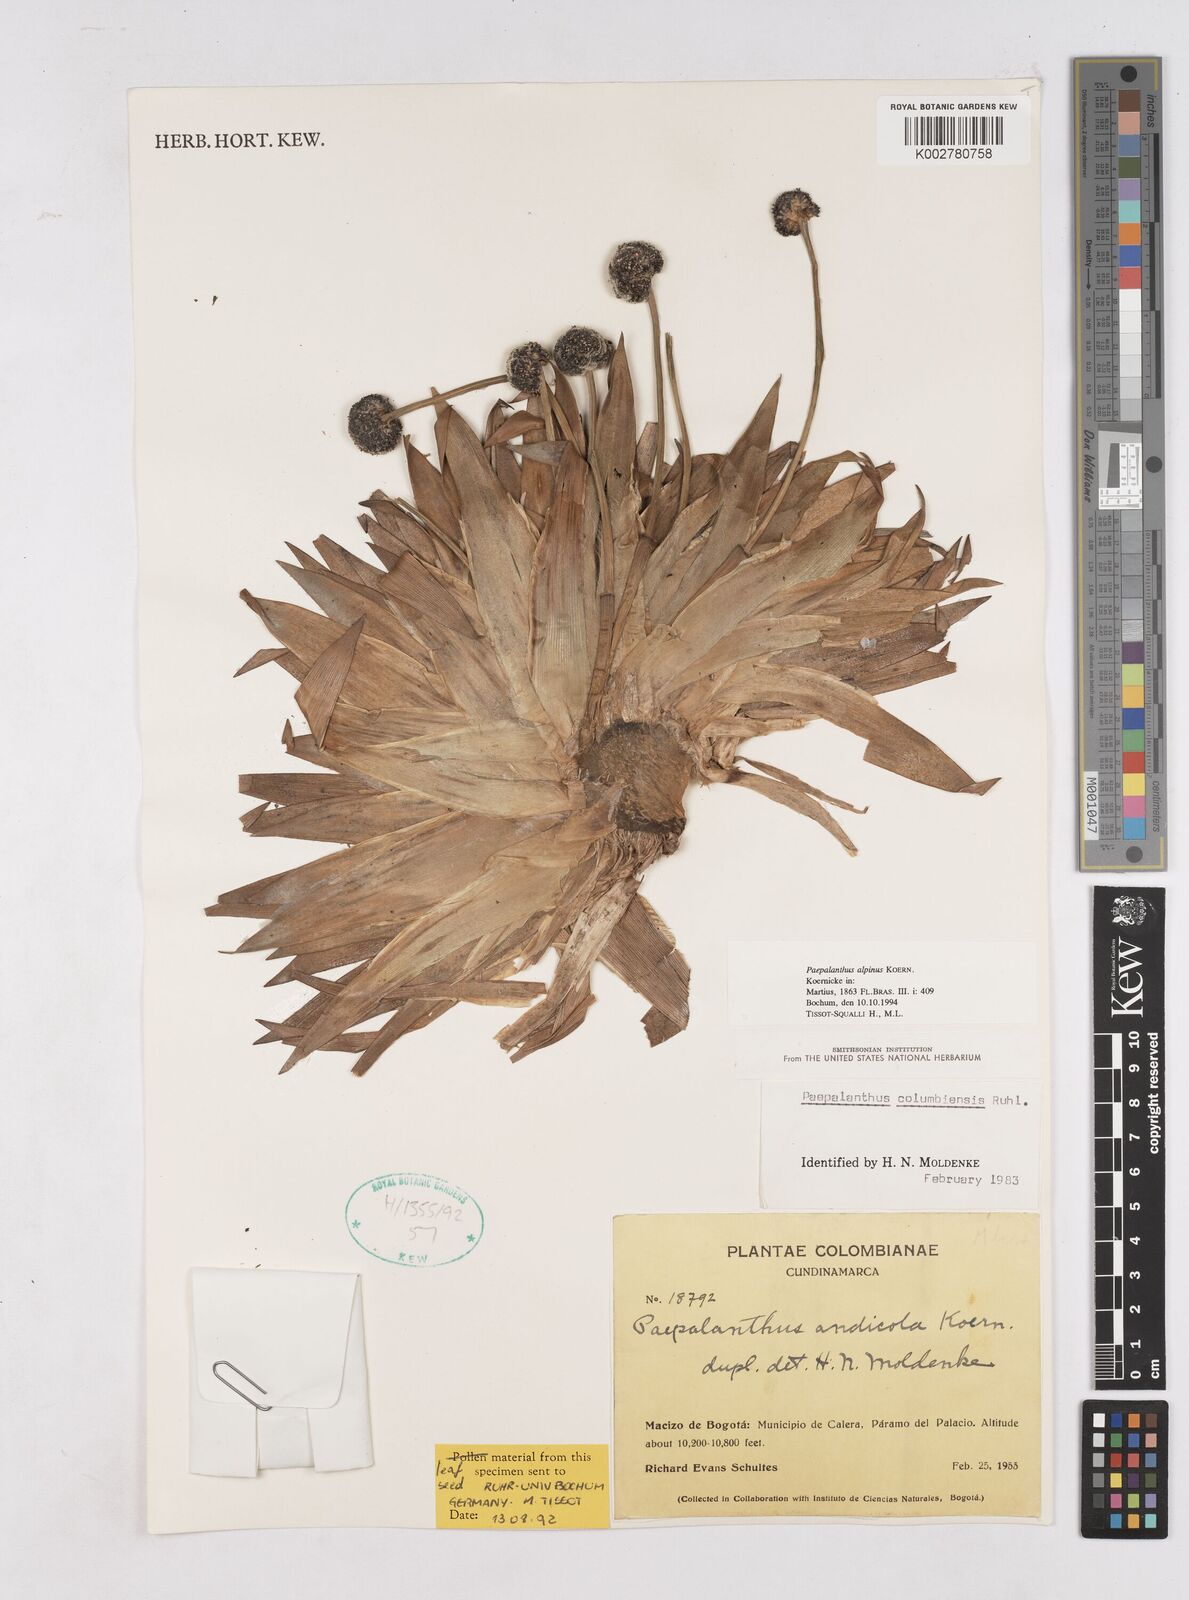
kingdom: Plantae
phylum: Tracheophyta
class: Liliopsida
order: Poales
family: Eriocaulaceae
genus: Paepalanthus
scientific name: Paepalanthus alpinus
